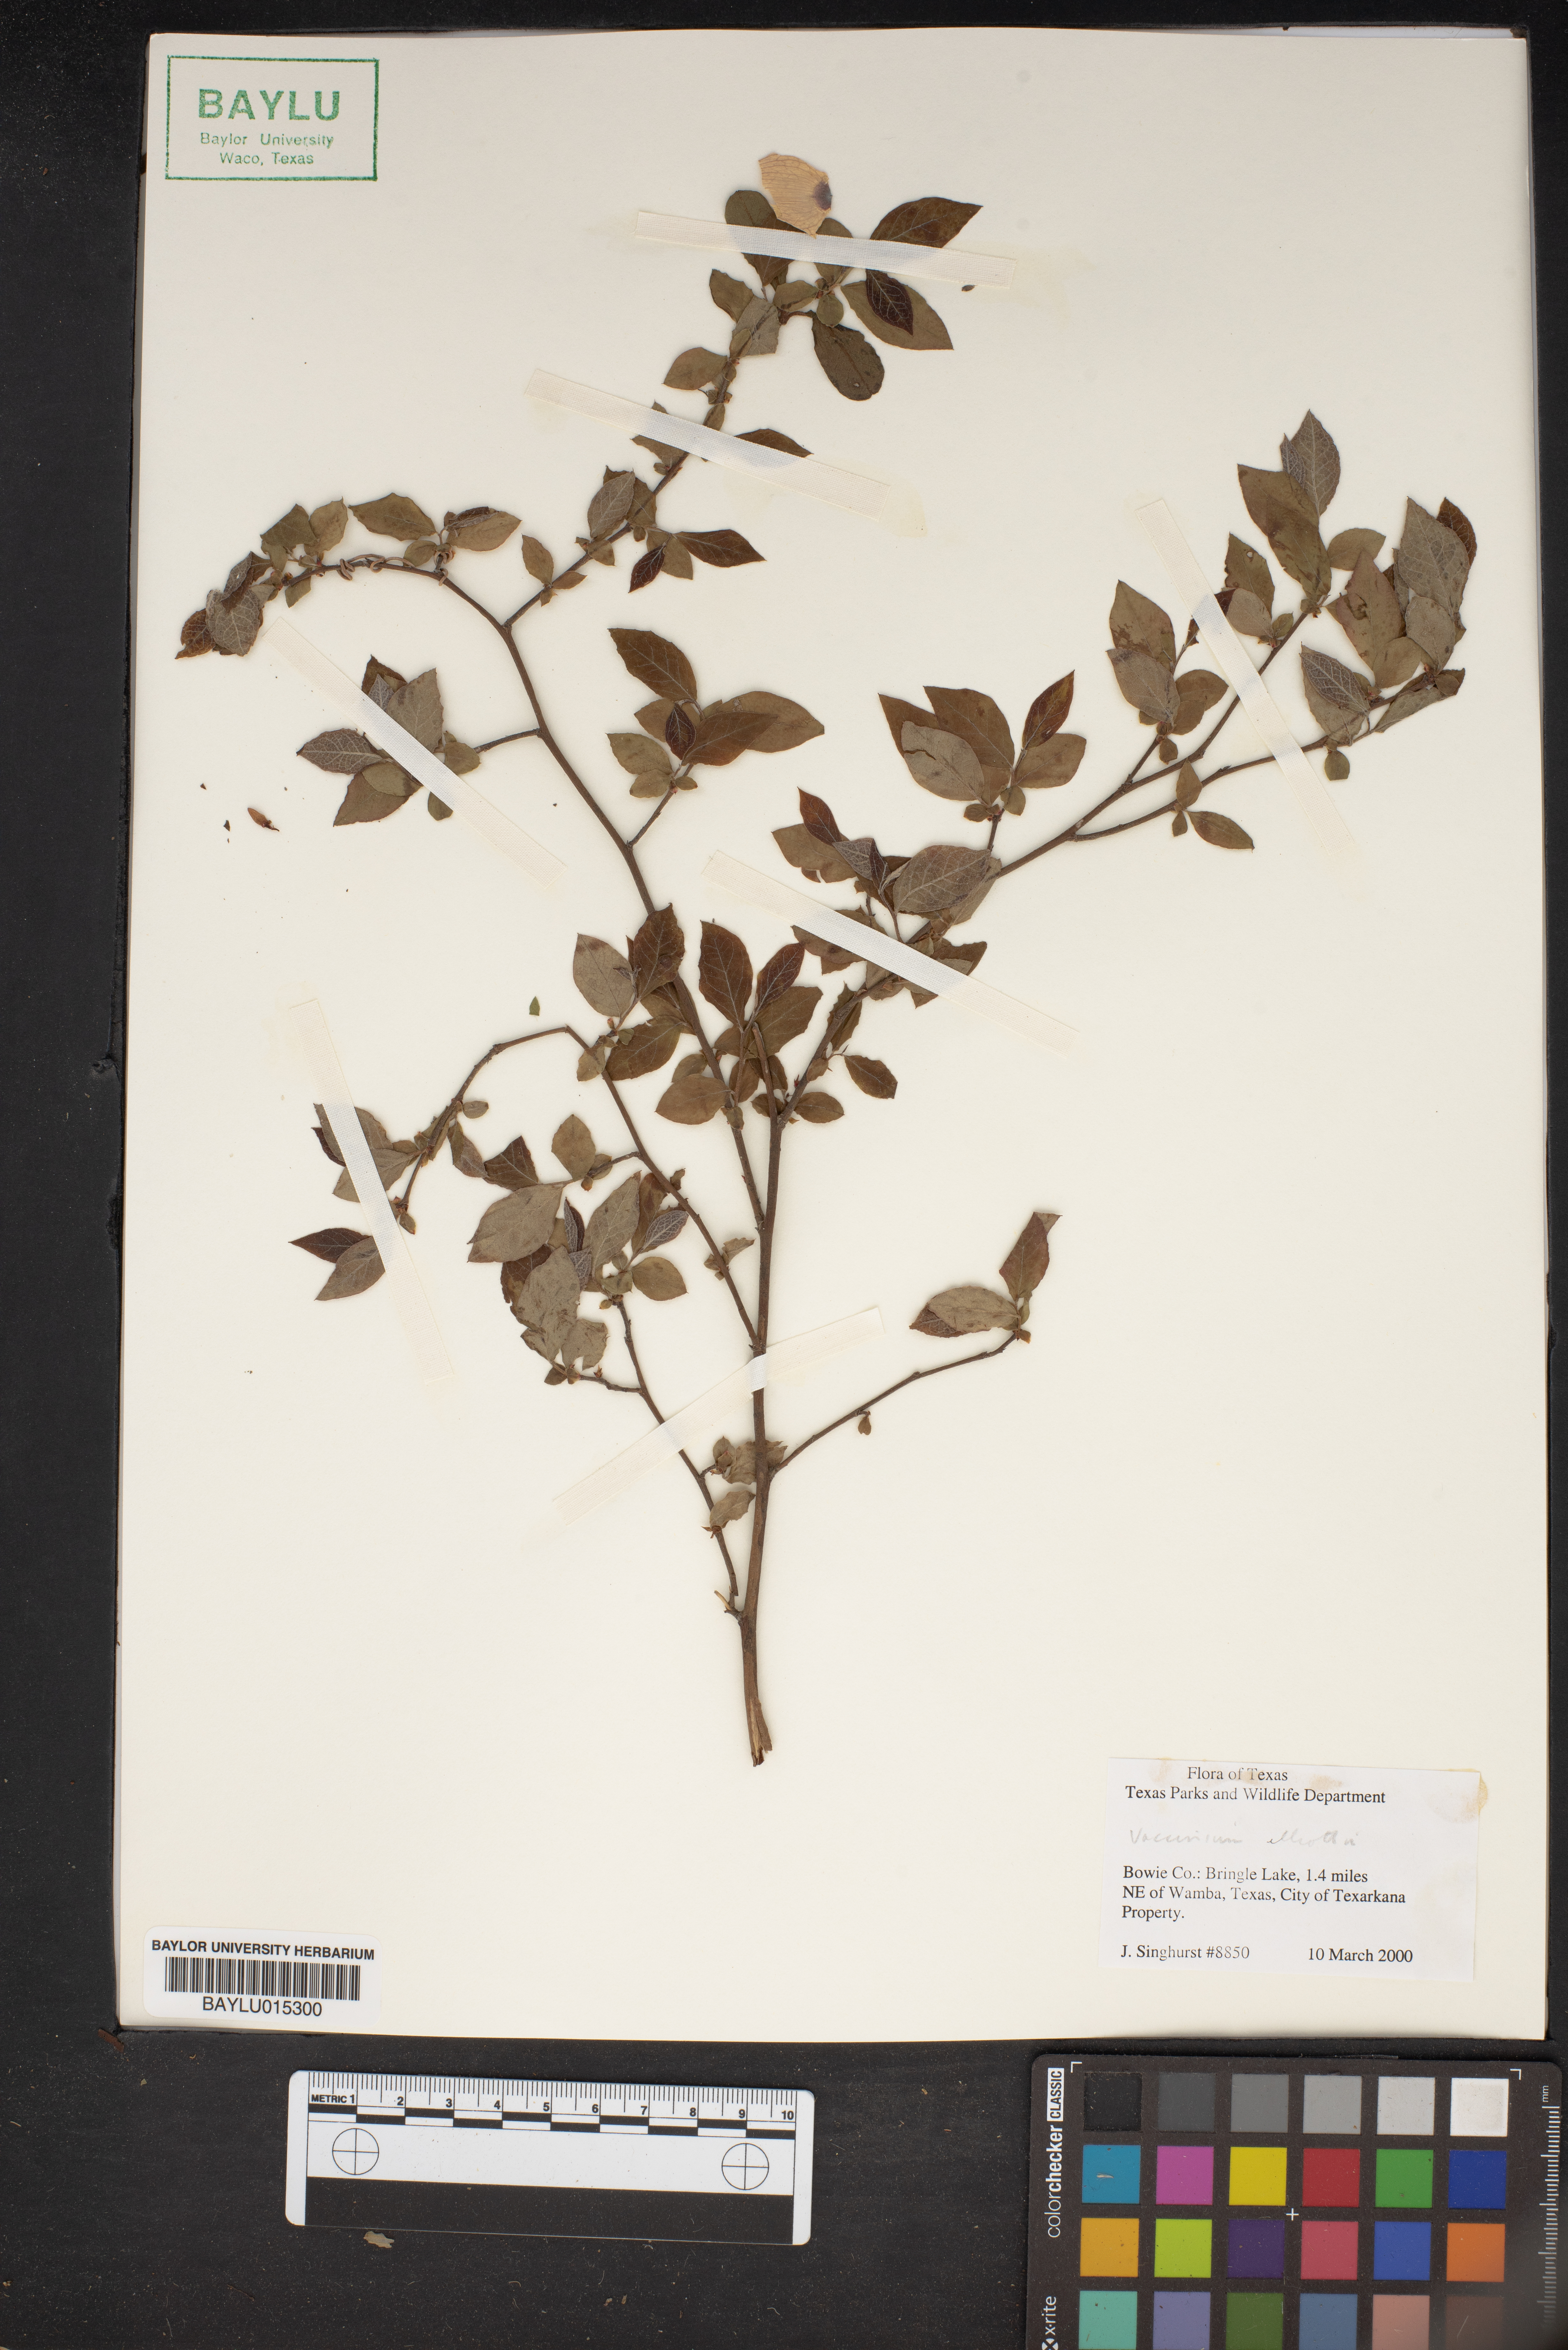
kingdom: Plantae
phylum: Tracheophyta
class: Magnoliopsida
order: Ericales
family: Ericaceae
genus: Vaccinium
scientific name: Vaccinium corymbosum
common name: Blueberry
